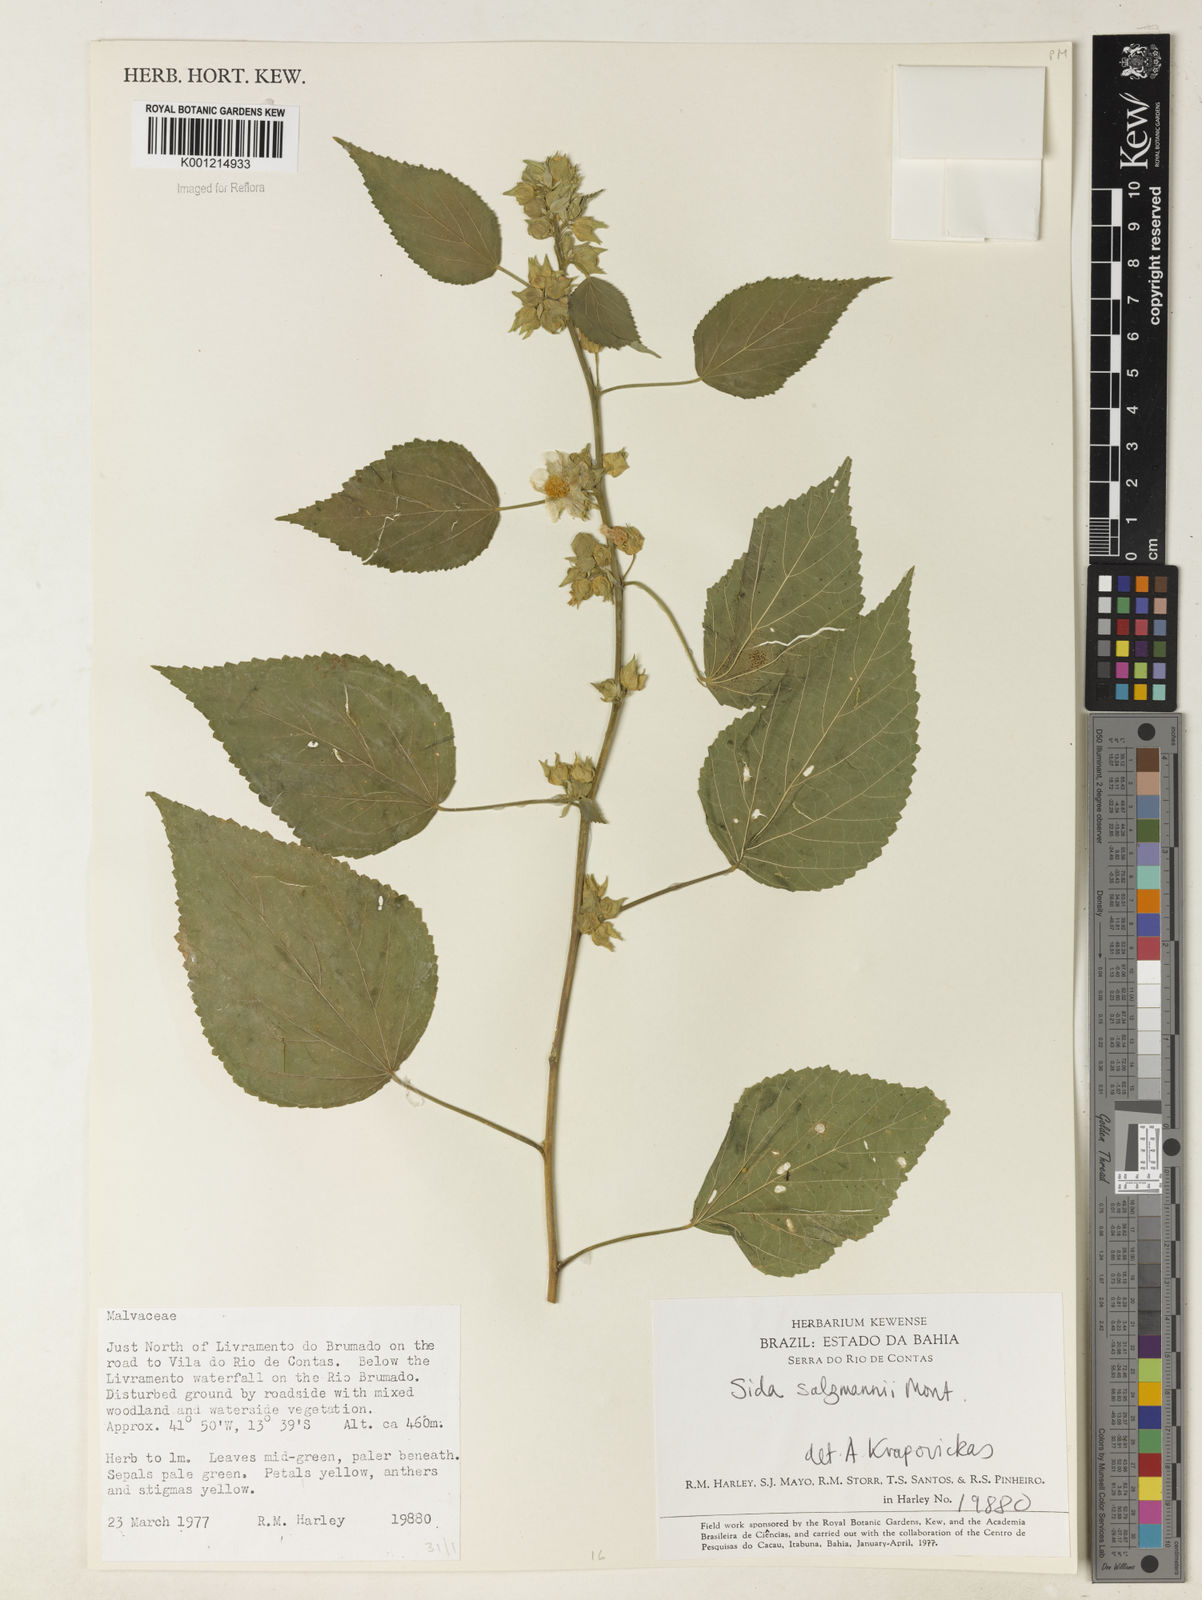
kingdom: Plantae
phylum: Tracheophyta
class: Magnoliopsida
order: Malvales
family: Malvaceae
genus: Sida
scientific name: Sida ulei
